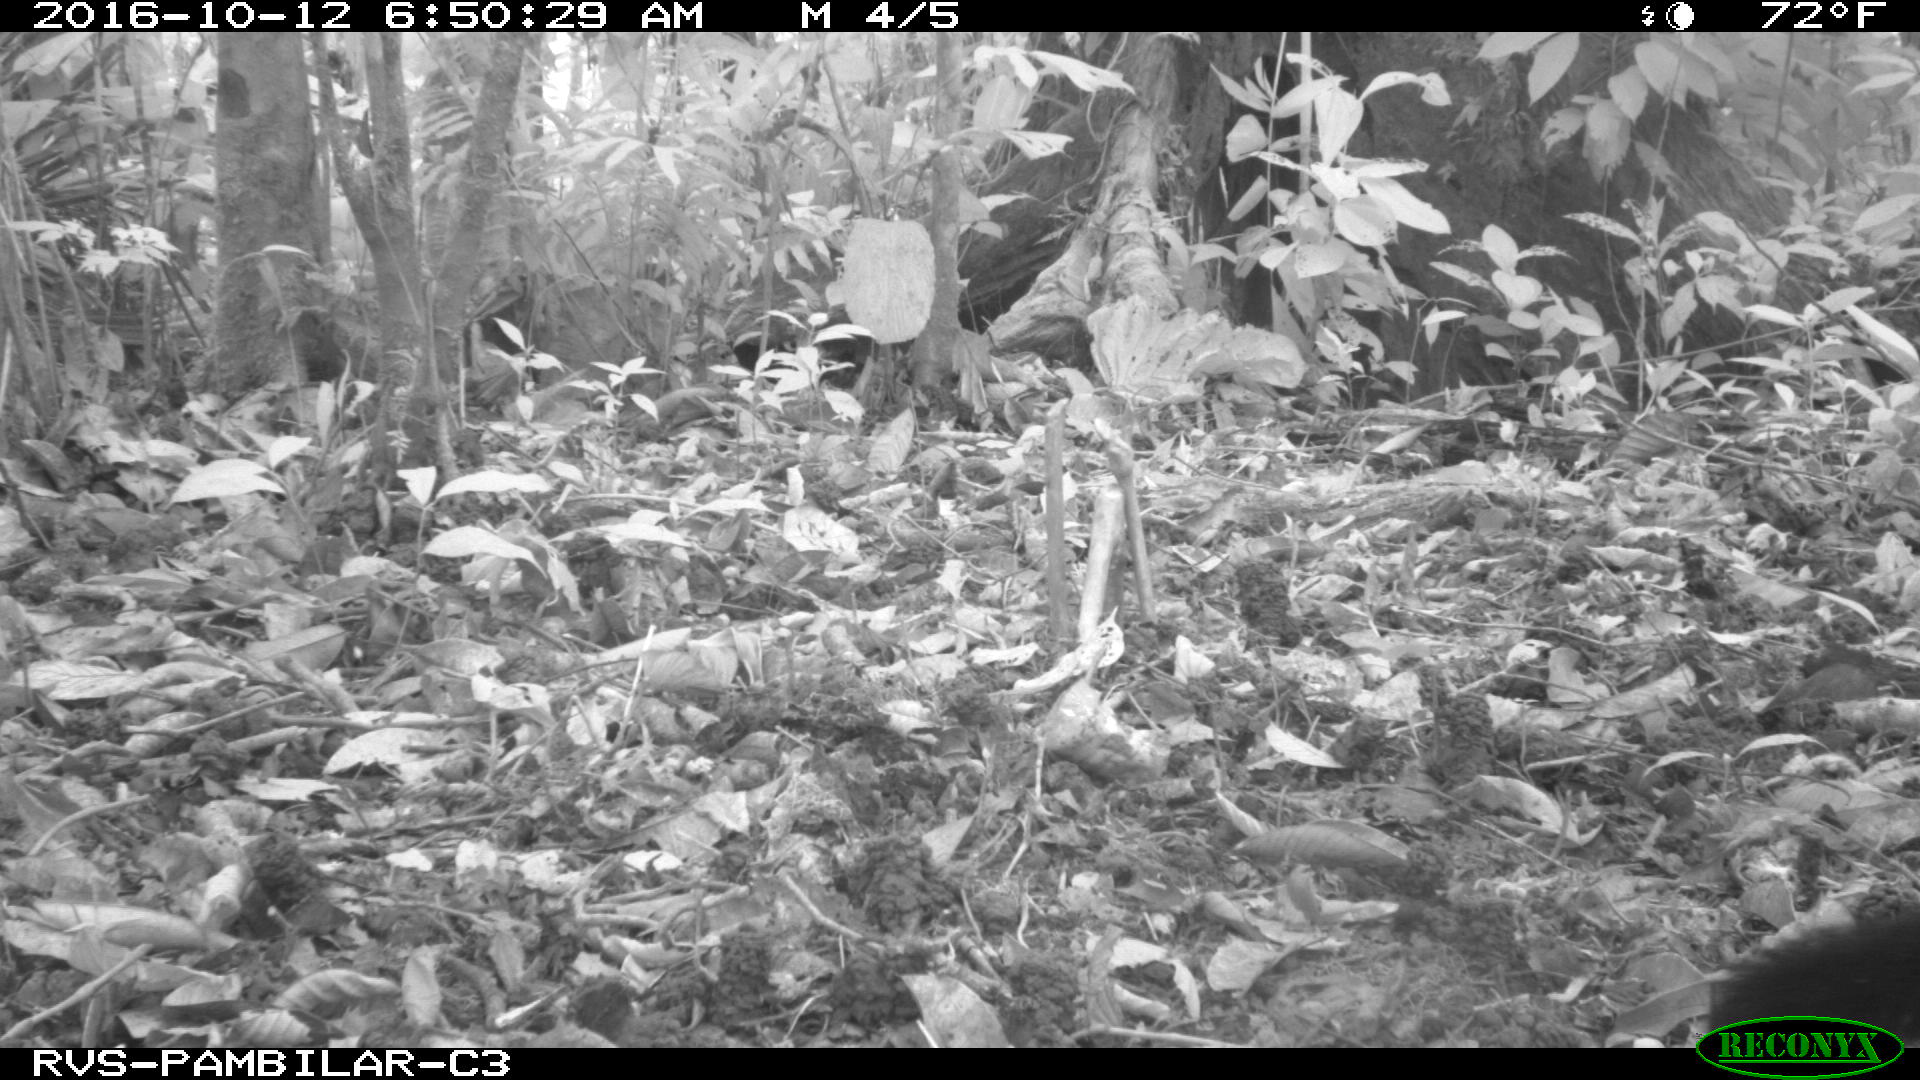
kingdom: Animalia
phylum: Chordata
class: Mammalia
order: Carnivora
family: Mustelidae
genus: Eira
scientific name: Eira barbara
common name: Tayra
